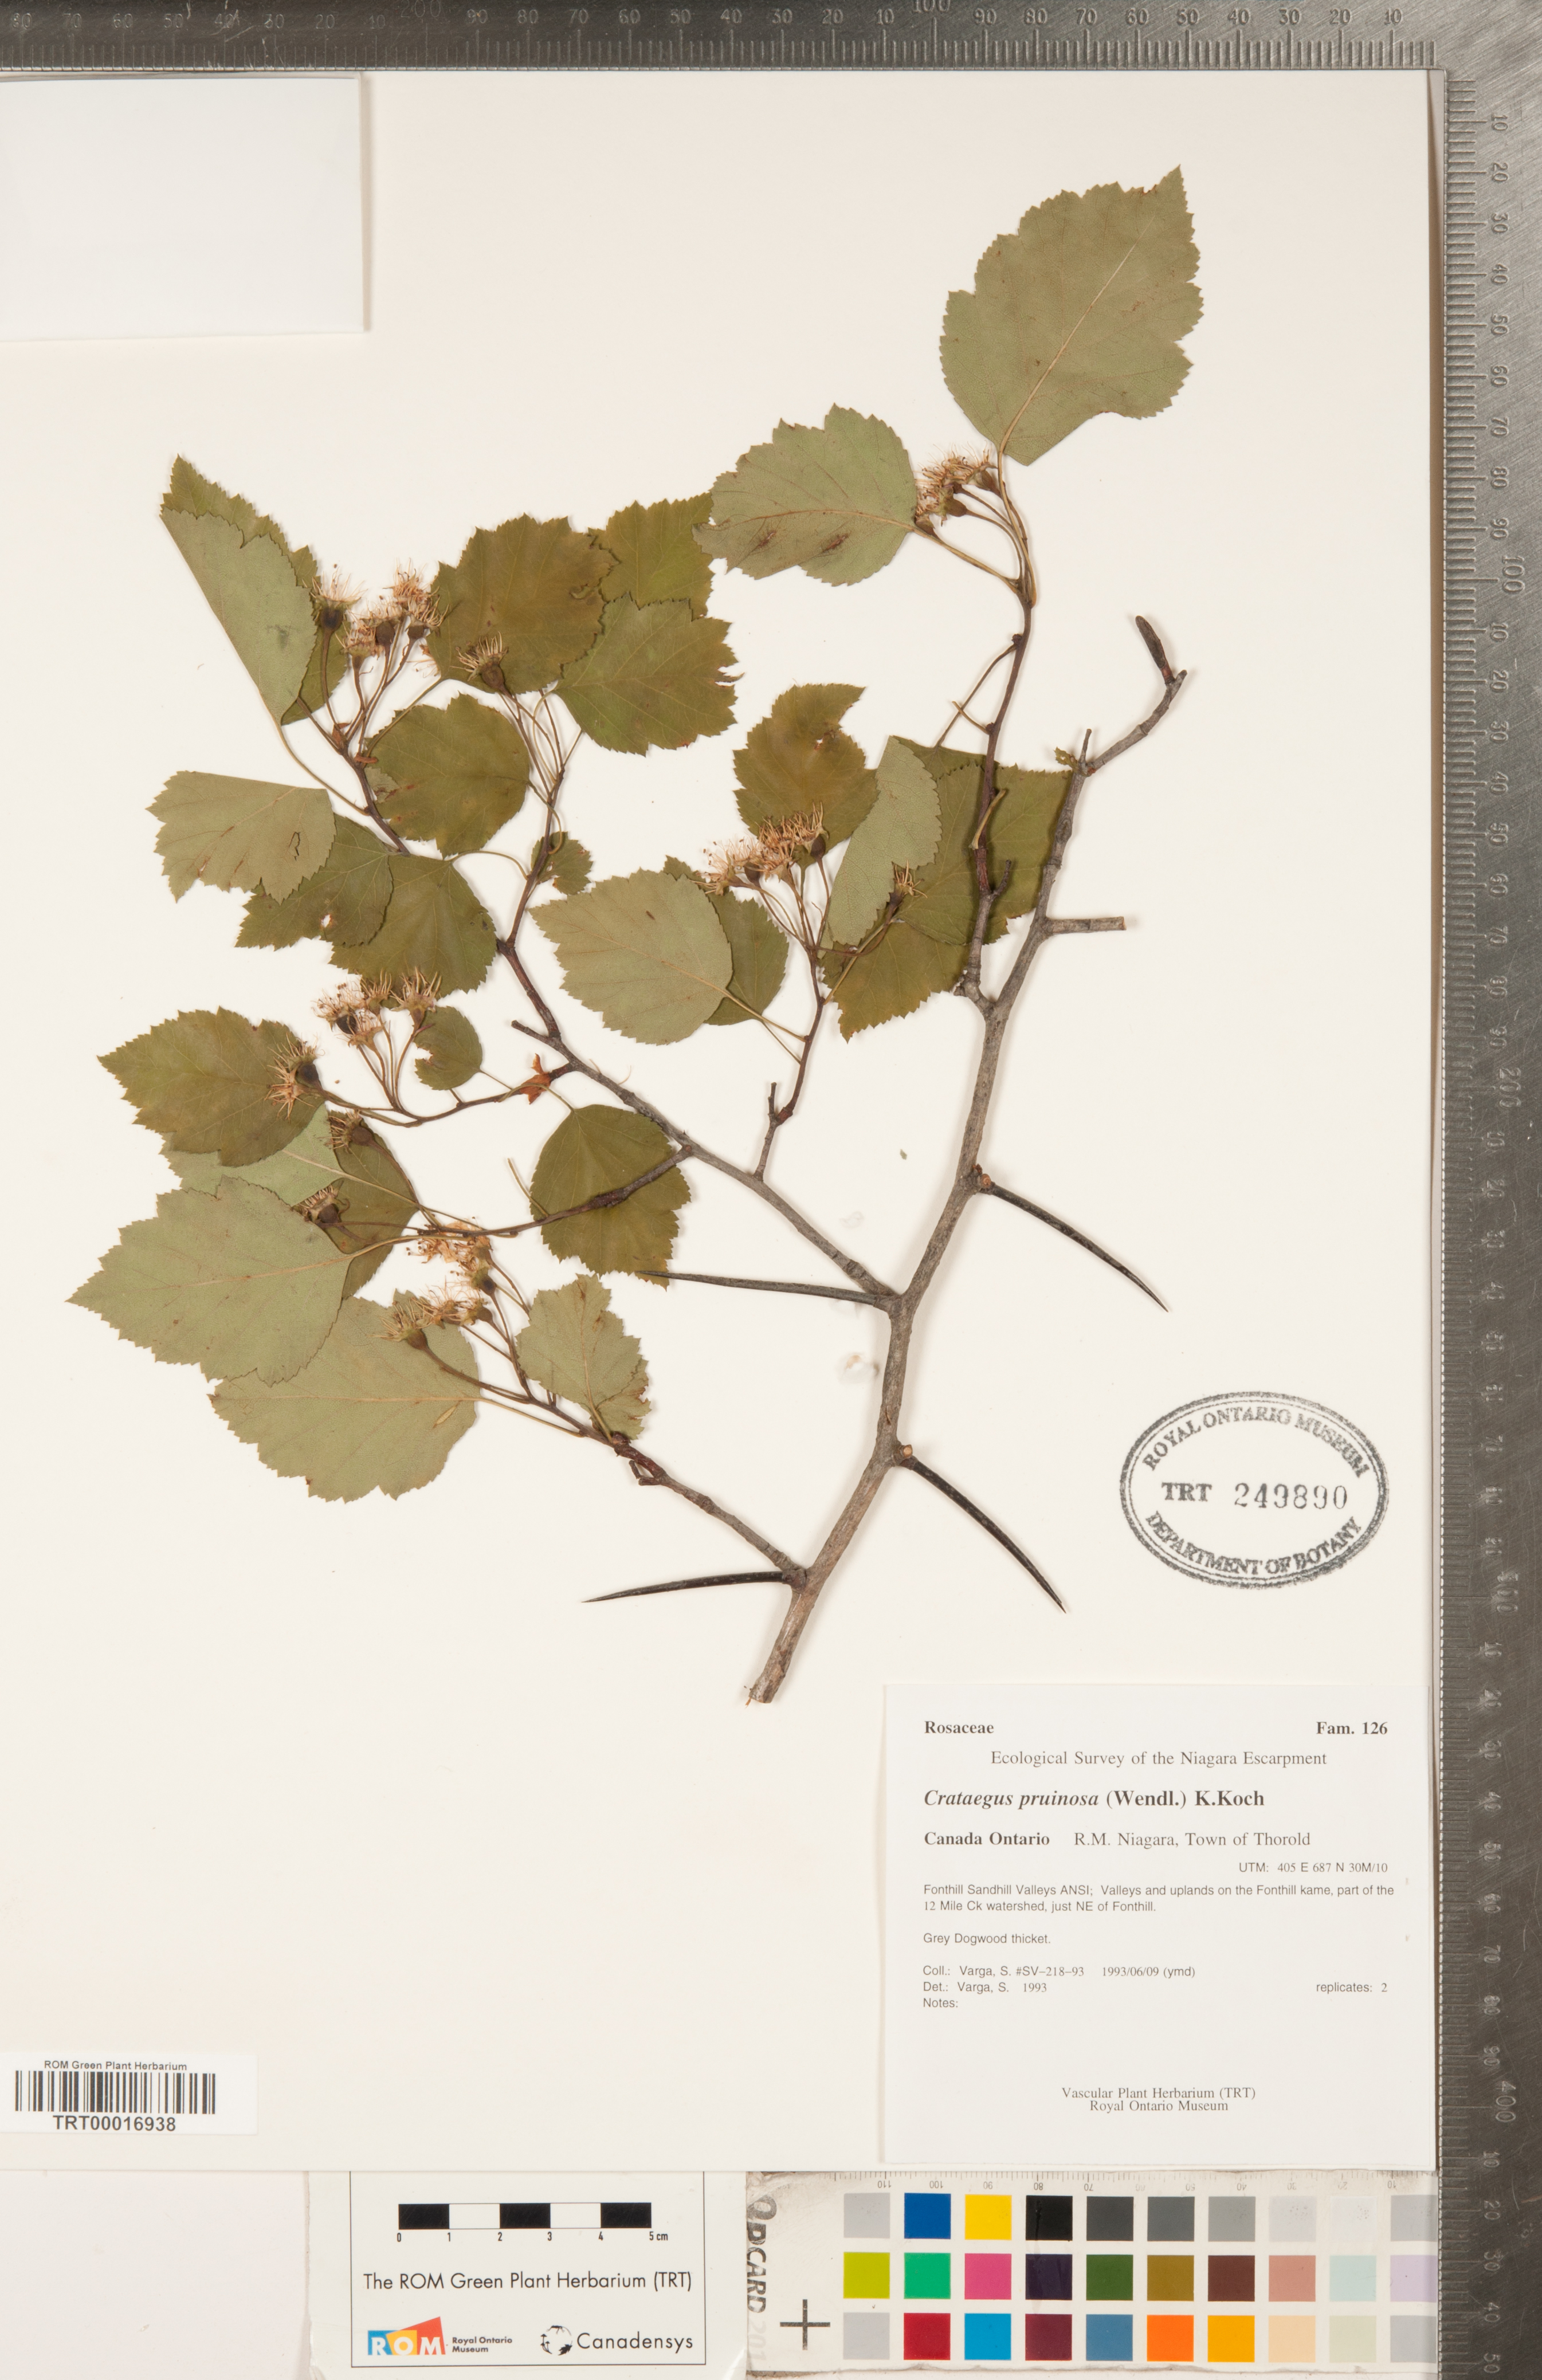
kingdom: Plantae
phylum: Tracheophyta
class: Magnoliopsida
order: Rosales
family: Rosaceae
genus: Crataegus
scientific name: Crataegus pruinosa
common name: Waxy-fruit hawthorn
